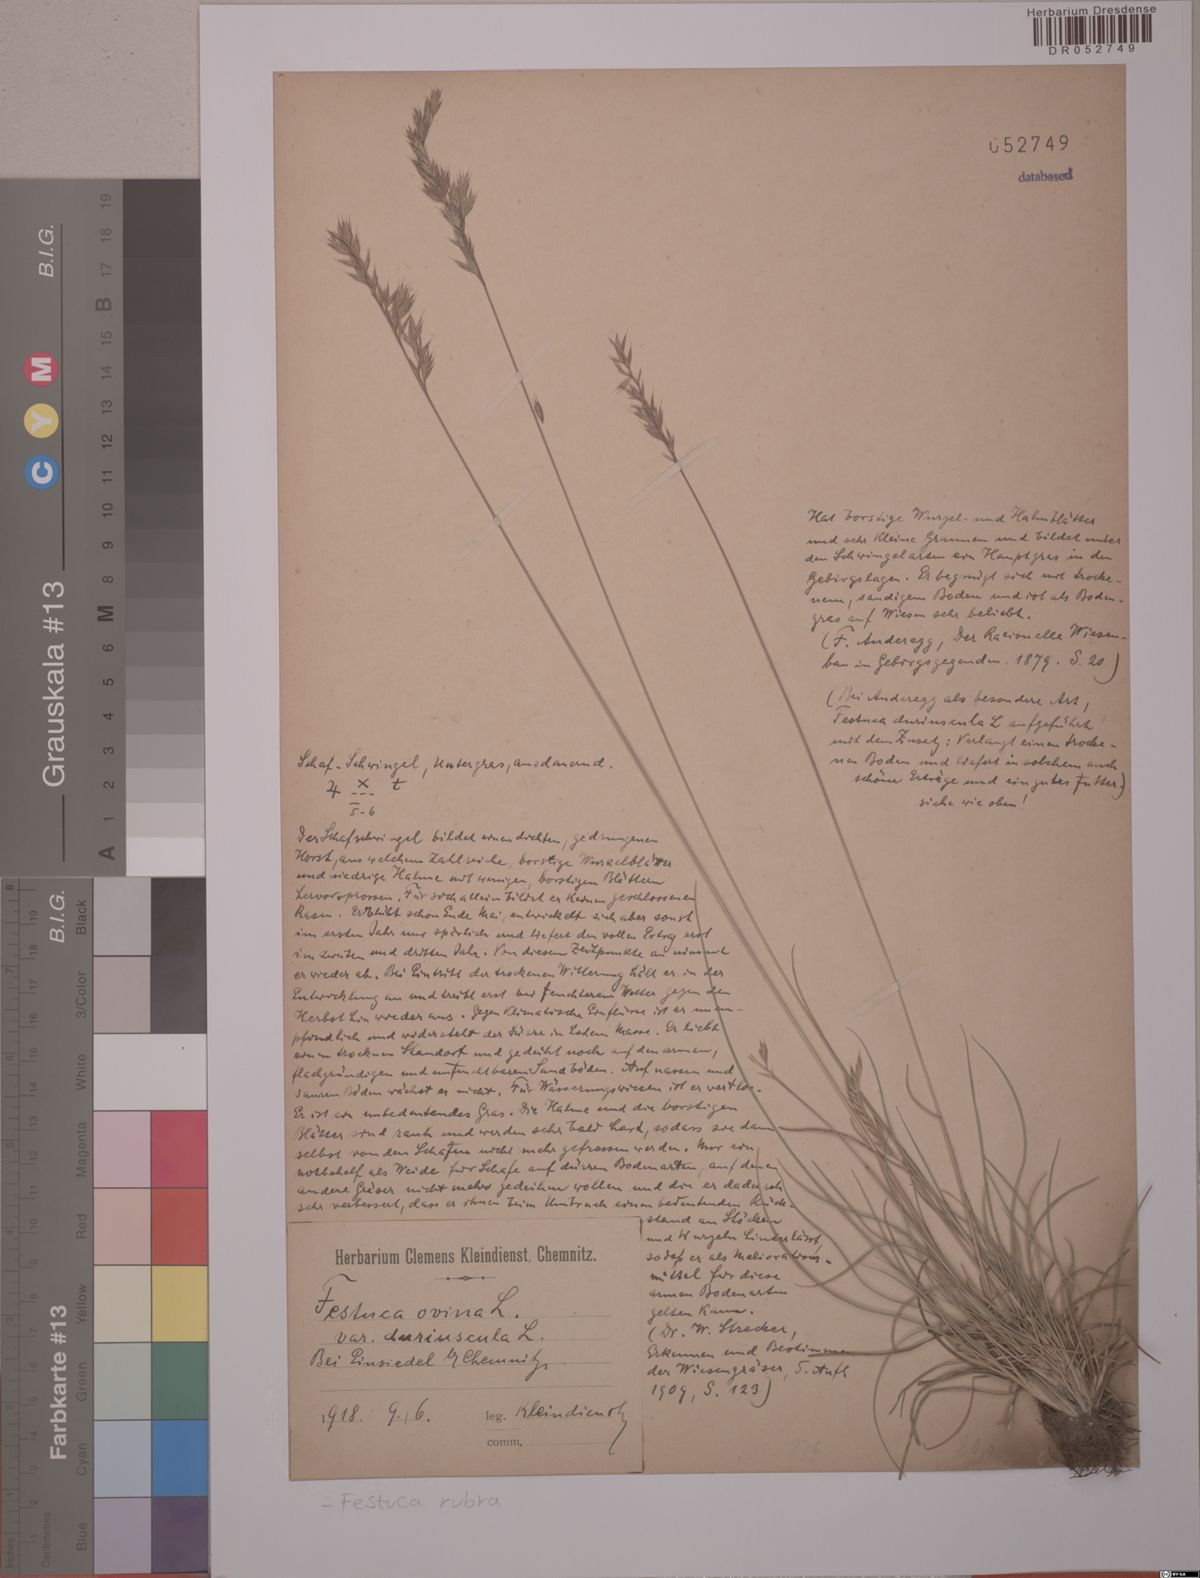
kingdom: Plantae
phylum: Tracheophyta
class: Liliopsida
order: Poales
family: Poaceae
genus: Festuca
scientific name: Festuca rubra
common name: Red fescue
